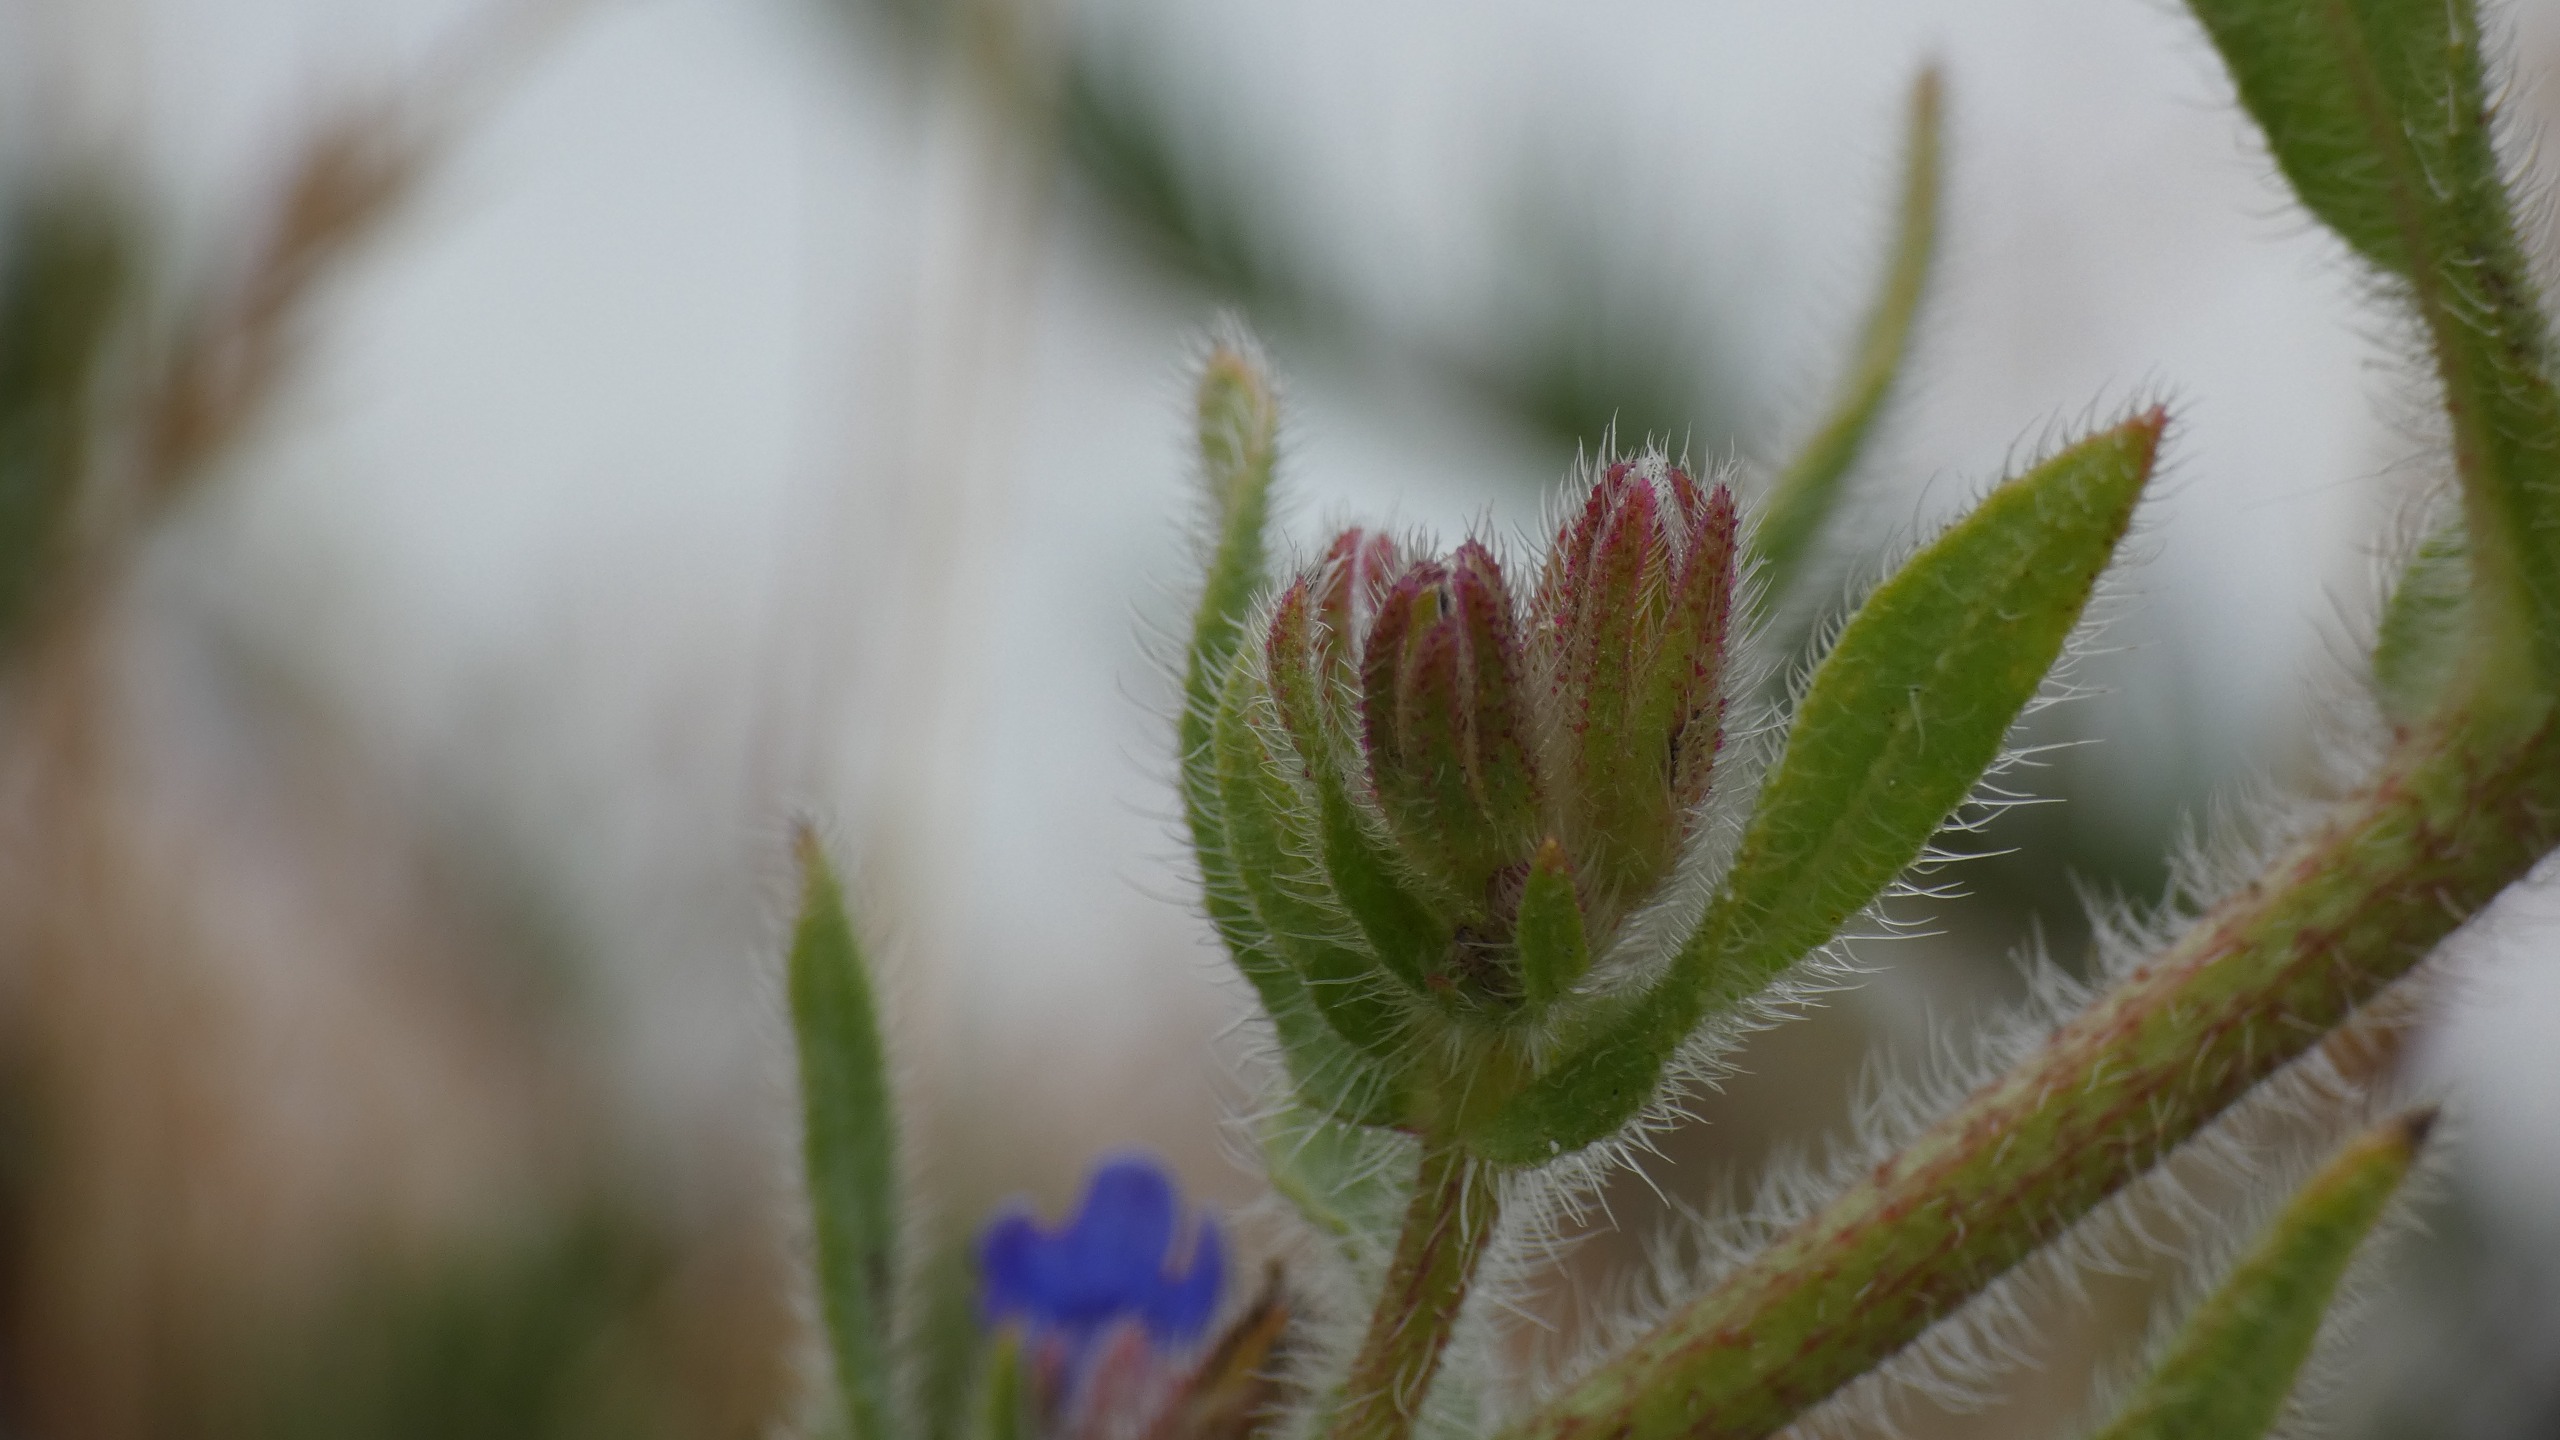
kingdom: Plantae
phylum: Tracheophyta
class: Magnoliopsida
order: Boraginales
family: Boraginaceae
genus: Anchusa
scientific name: Anchusa officinalis
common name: Læge-oksetunge
